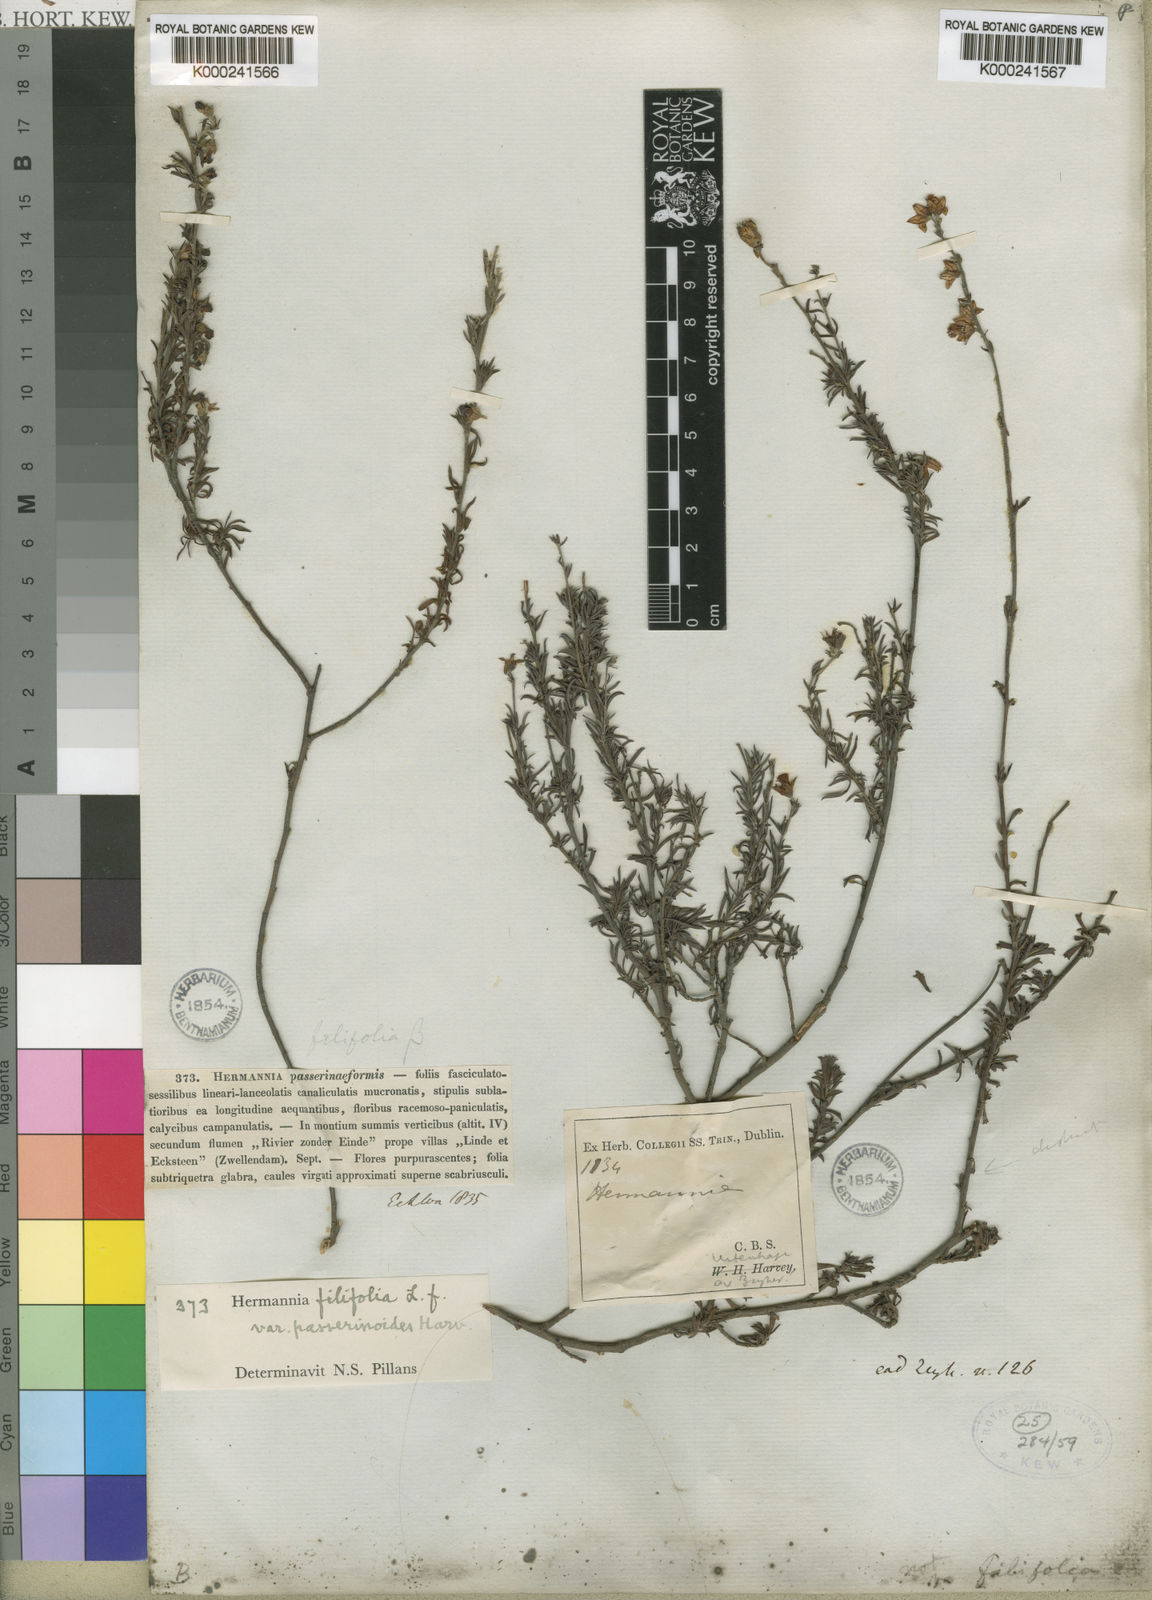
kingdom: Plantae
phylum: Tracheophyta
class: Magnoliopsida
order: Malvales
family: Malvaceae
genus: Hermannia
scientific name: Hermannia filifolia
